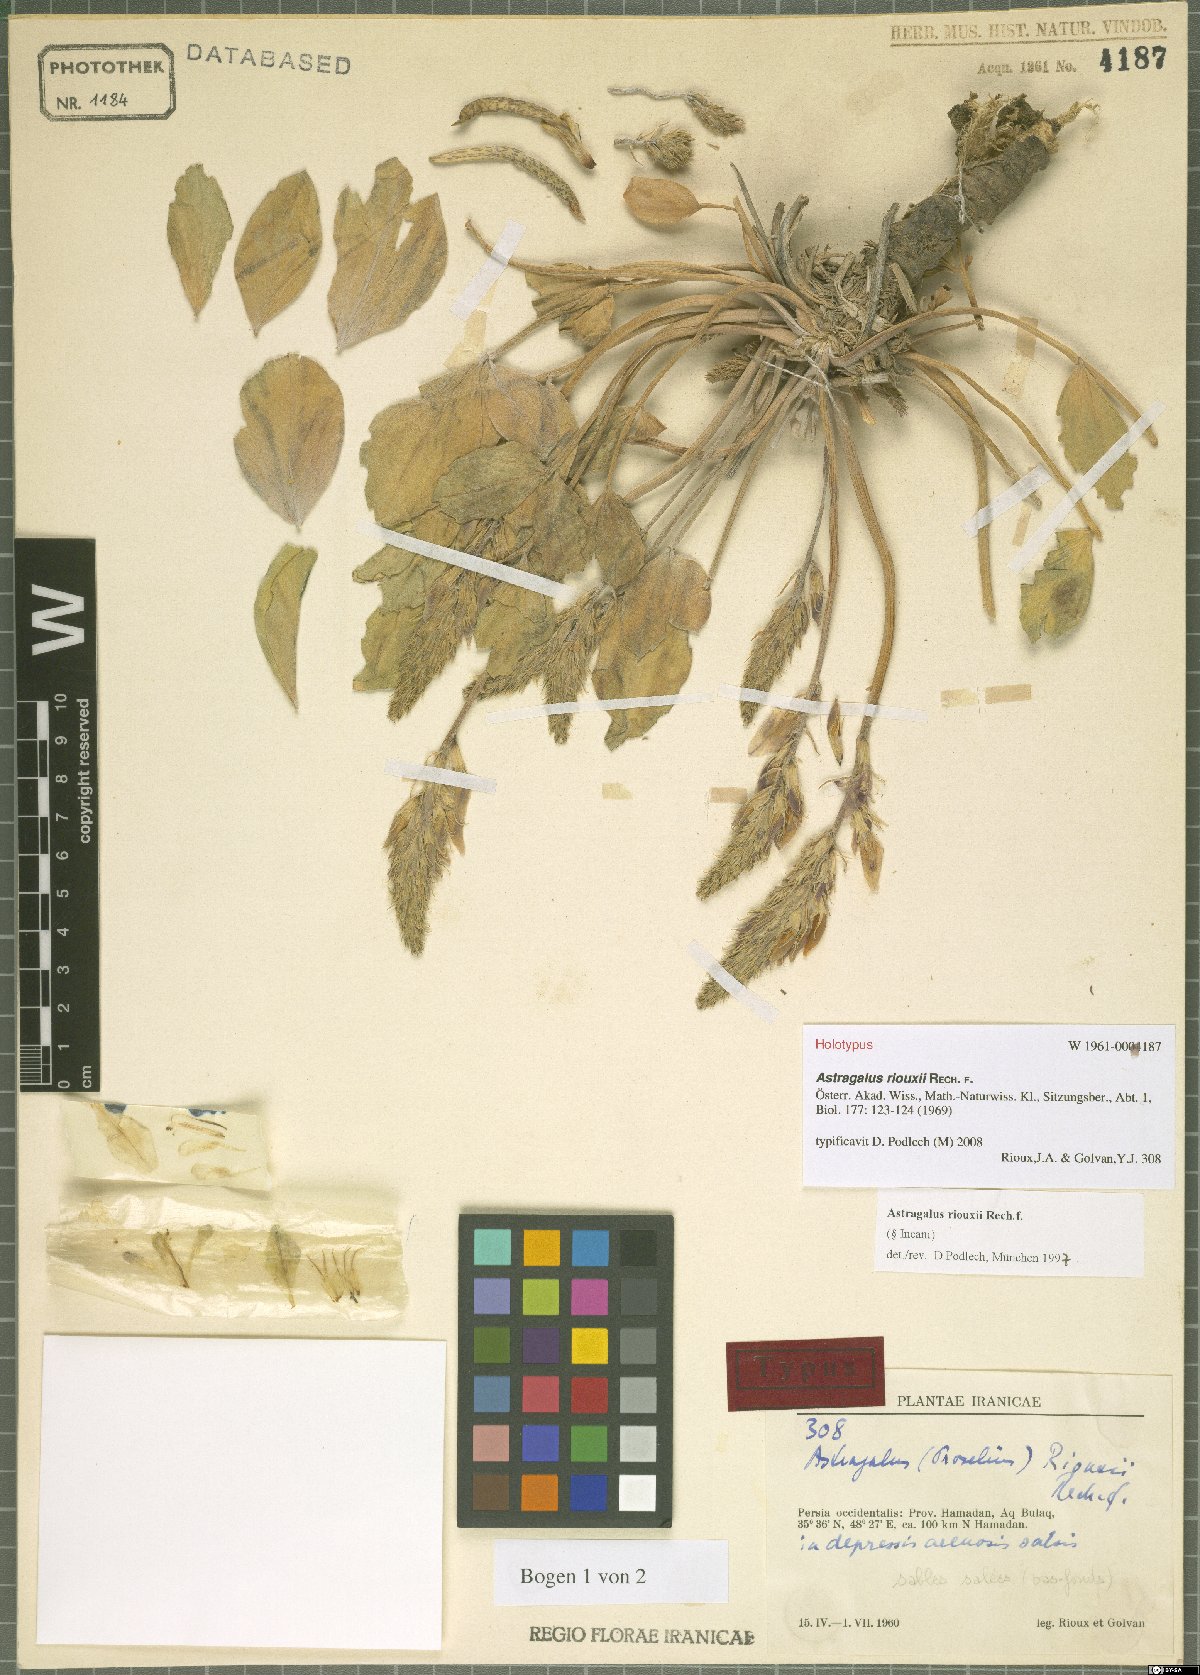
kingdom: Plantae
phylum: Tracheophyta
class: Magnoliopsida
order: Fabales
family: Fabaceae
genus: Astragalus
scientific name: Astragalus riouxii
